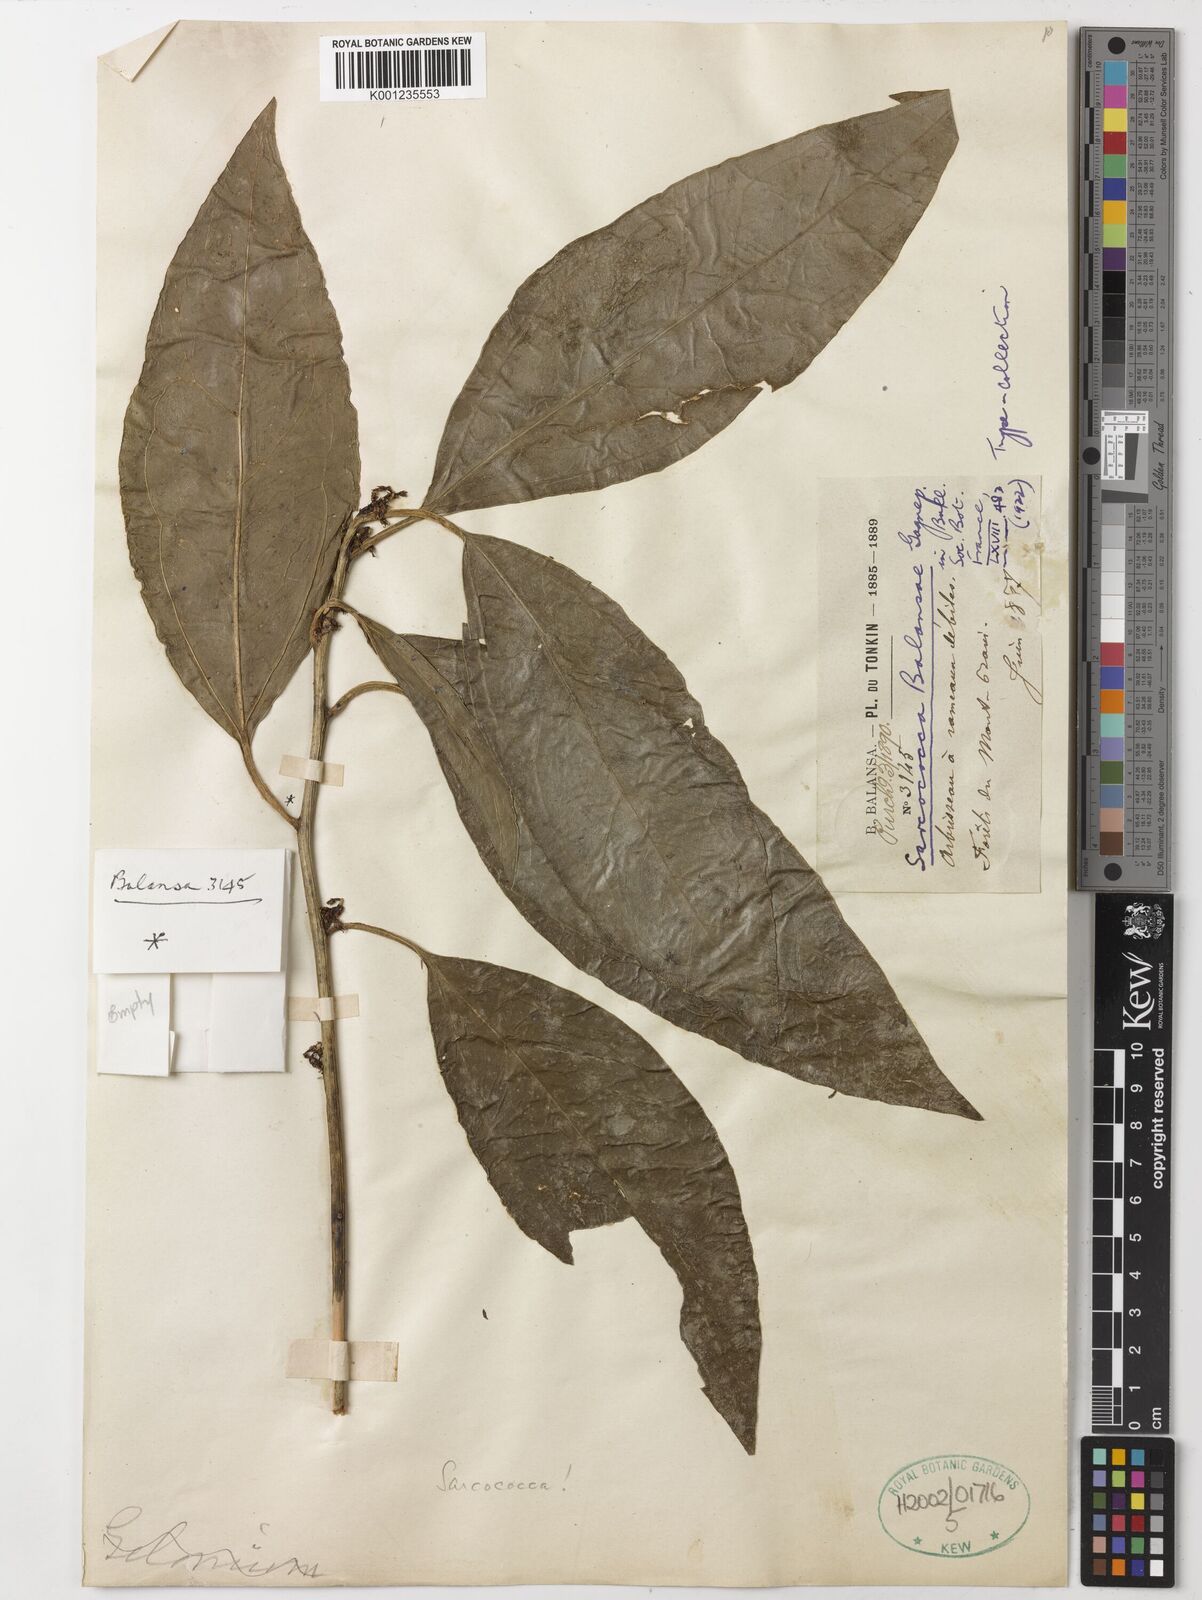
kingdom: Plantae
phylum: Tracheophyta
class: Magnoliopsida
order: Buxales
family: Buxaceae
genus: Sarcococca
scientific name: Sarcococca balansae
